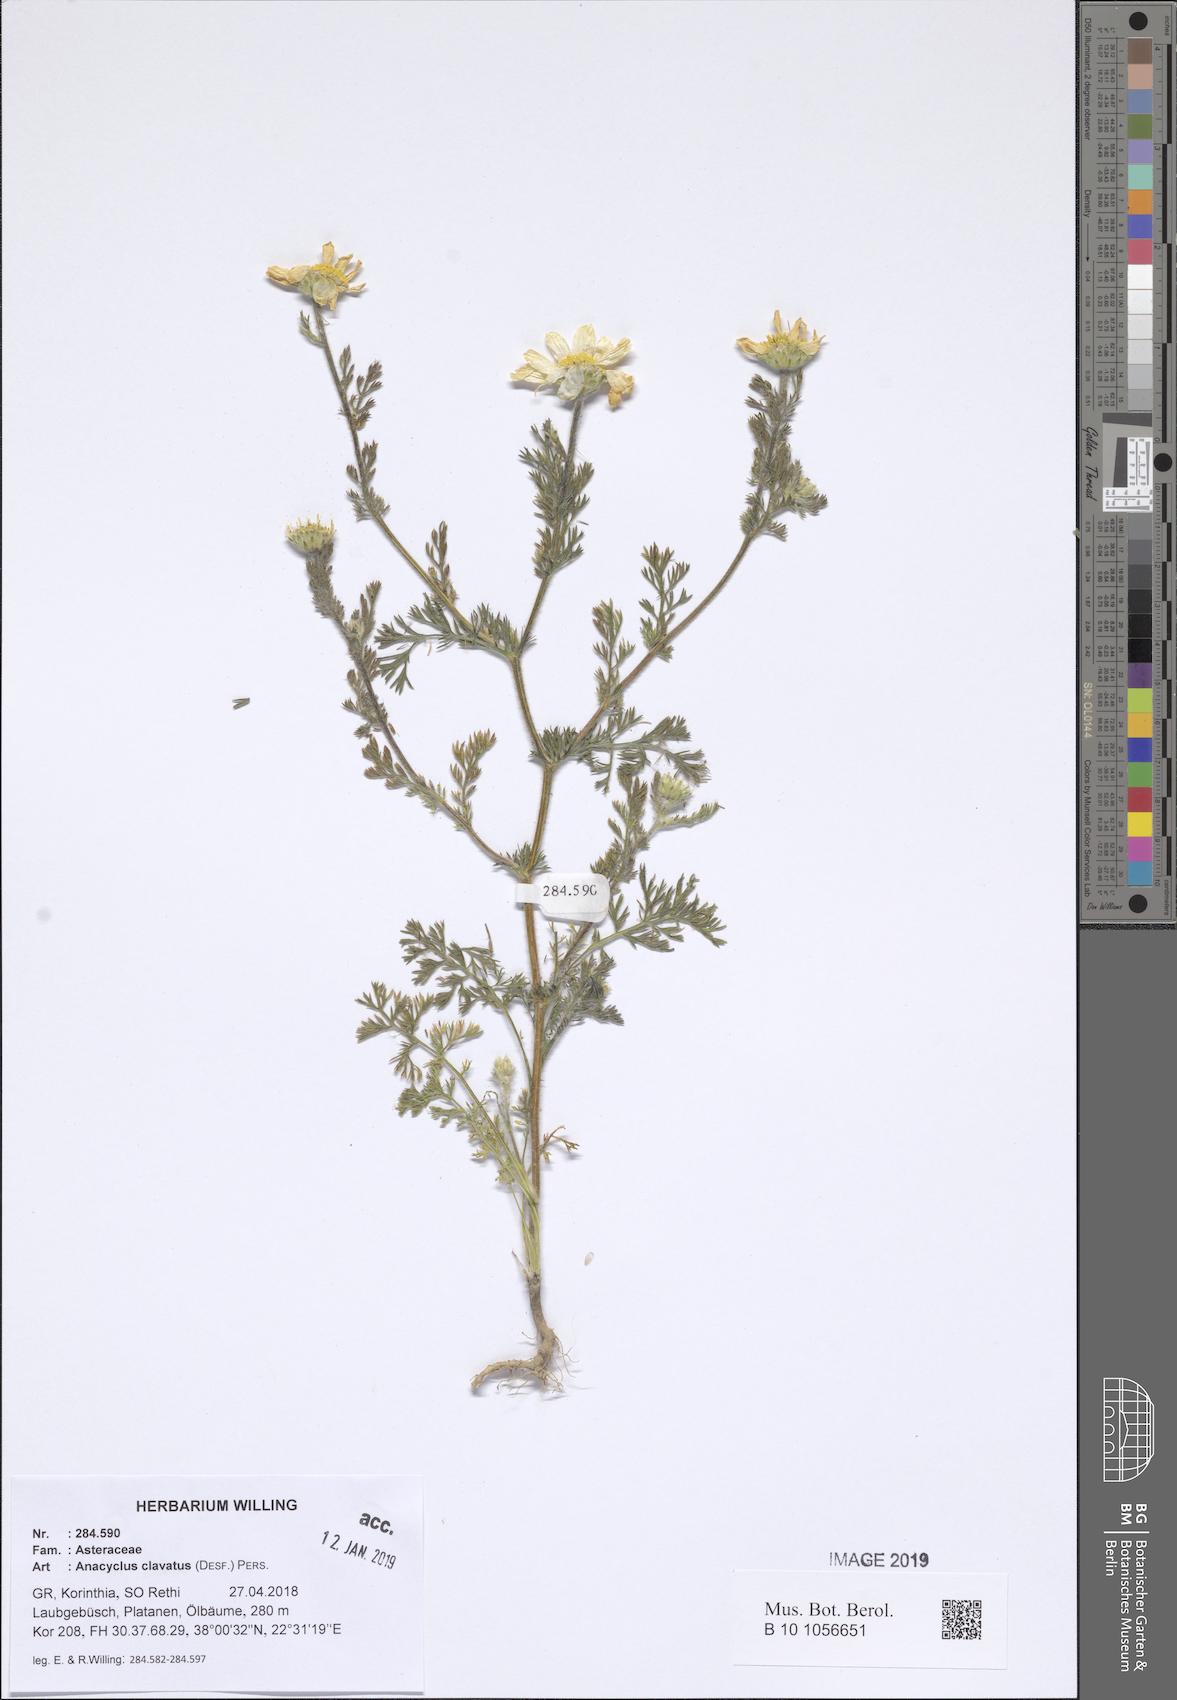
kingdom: Plantae
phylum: Tracheophyta
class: Magnoliopsida
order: Asterales
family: Asteraceae
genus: Anacyclus
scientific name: Anacyclus clavatus
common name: Whitebuttons
